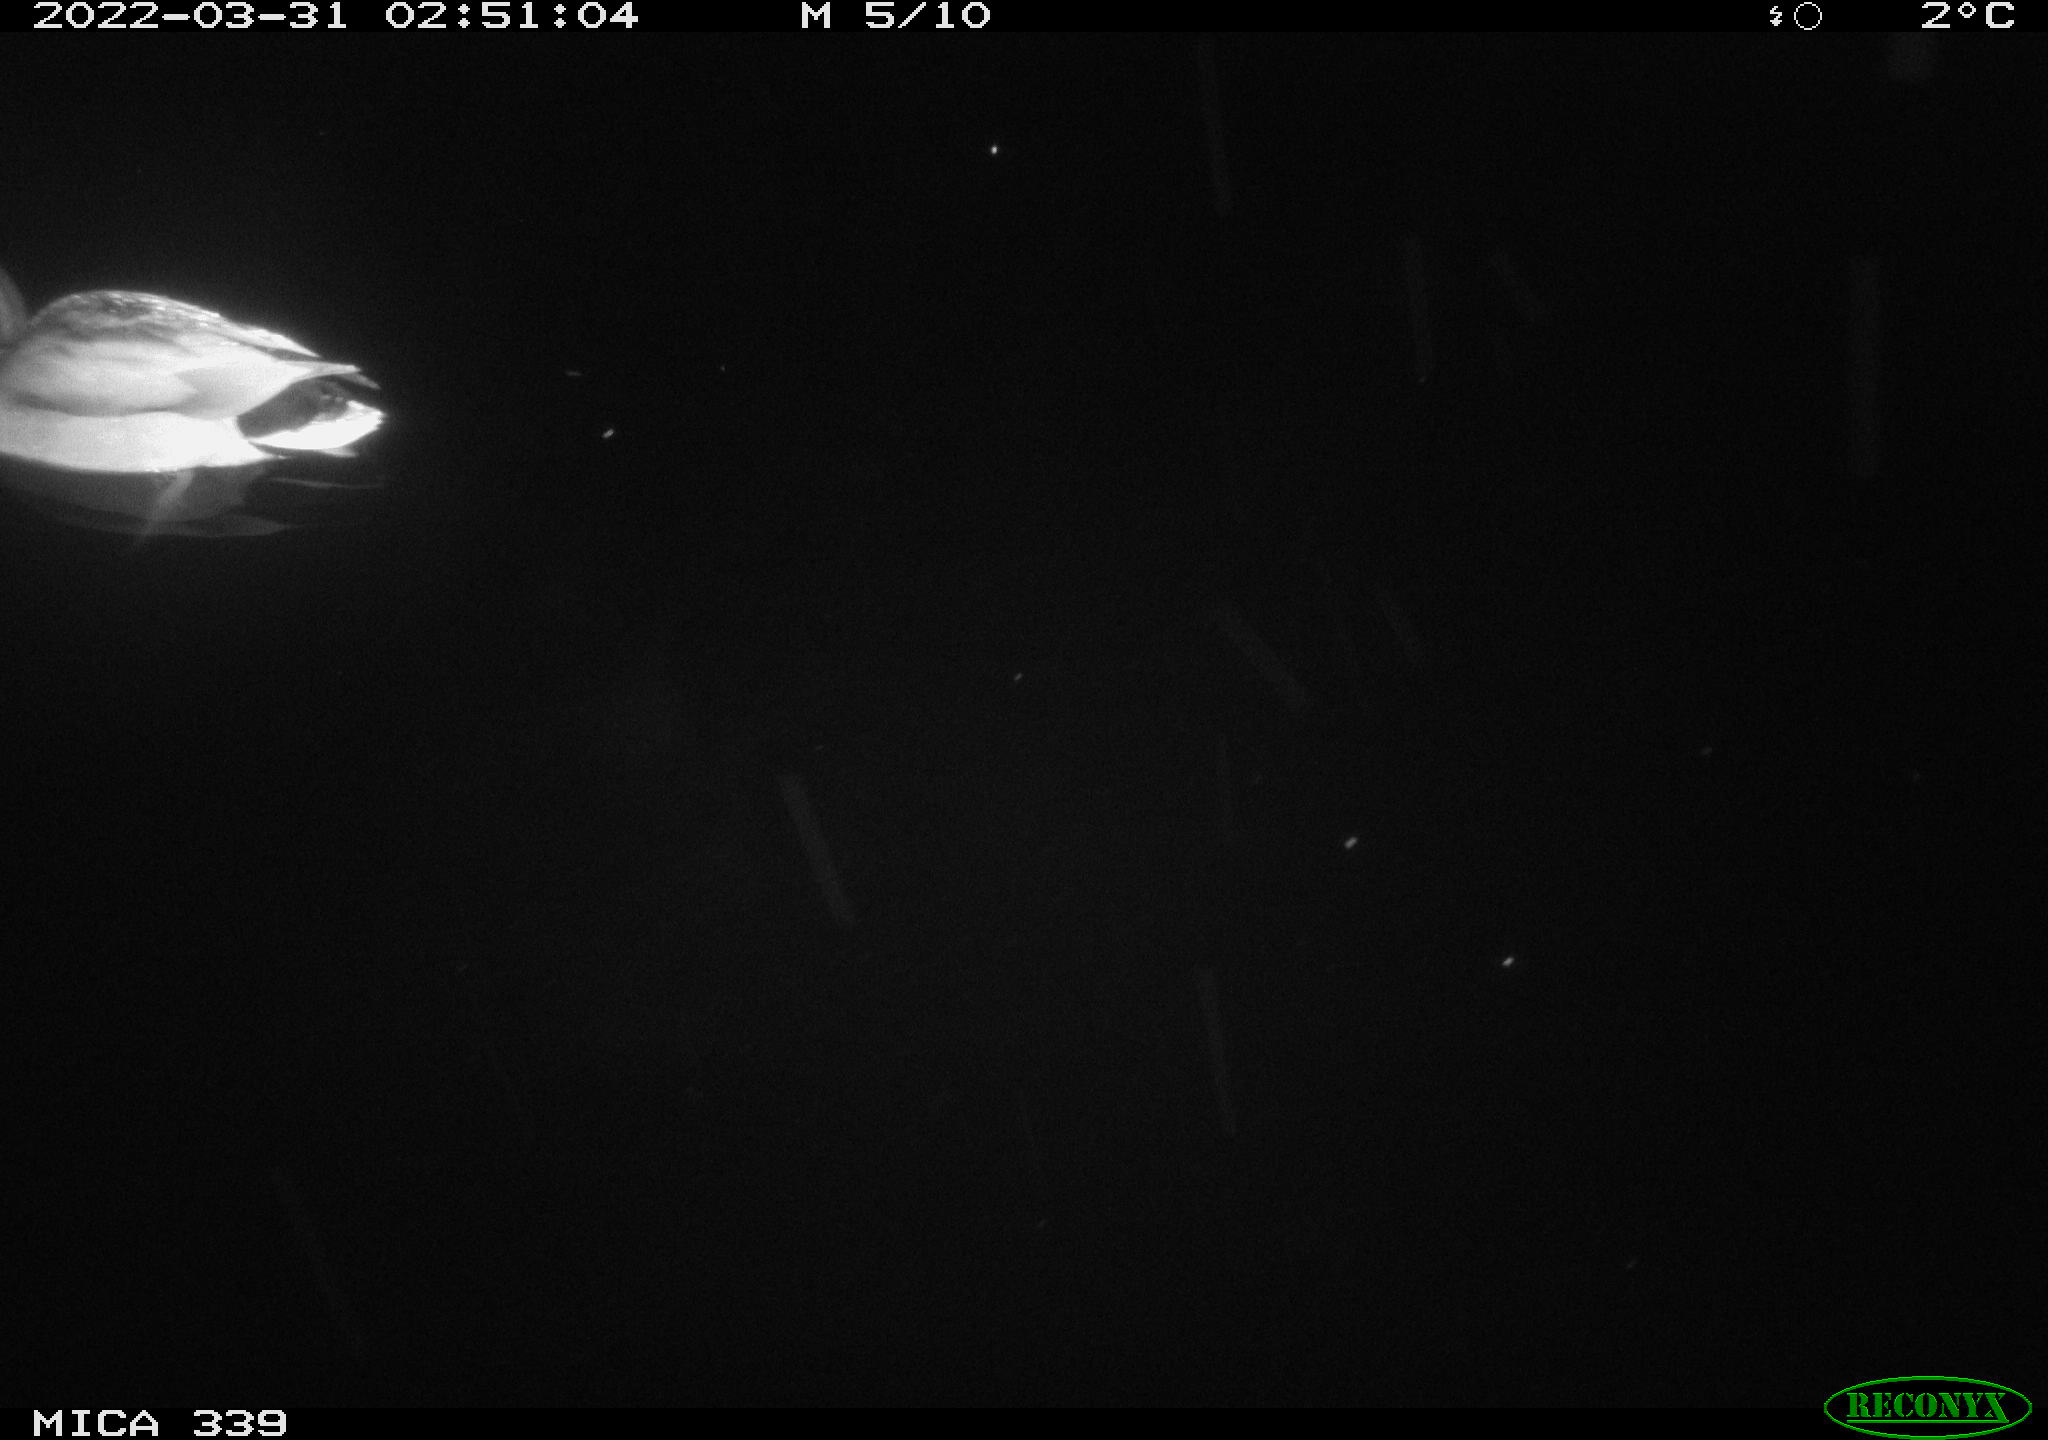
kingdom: Animalia
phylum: Chordata
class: Aves
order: Anseriformes
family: Anatidae
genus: Anas
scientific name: Anas platyrhynchos
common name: Mallard
